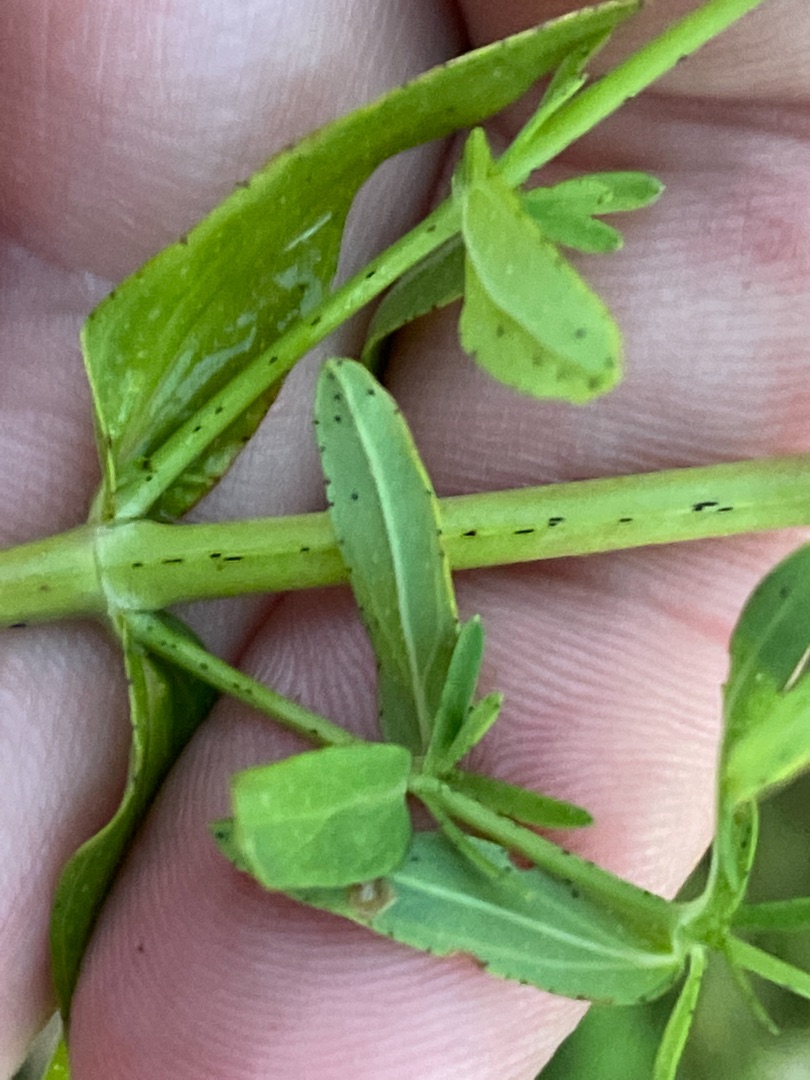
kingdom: Plantae
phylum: Tracheophyta
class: Magnoliopsida
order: Malpighiales
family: Hypericaceae
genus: Hypericum
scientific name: Hypericum perforatum
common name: Prikbladet perikon
